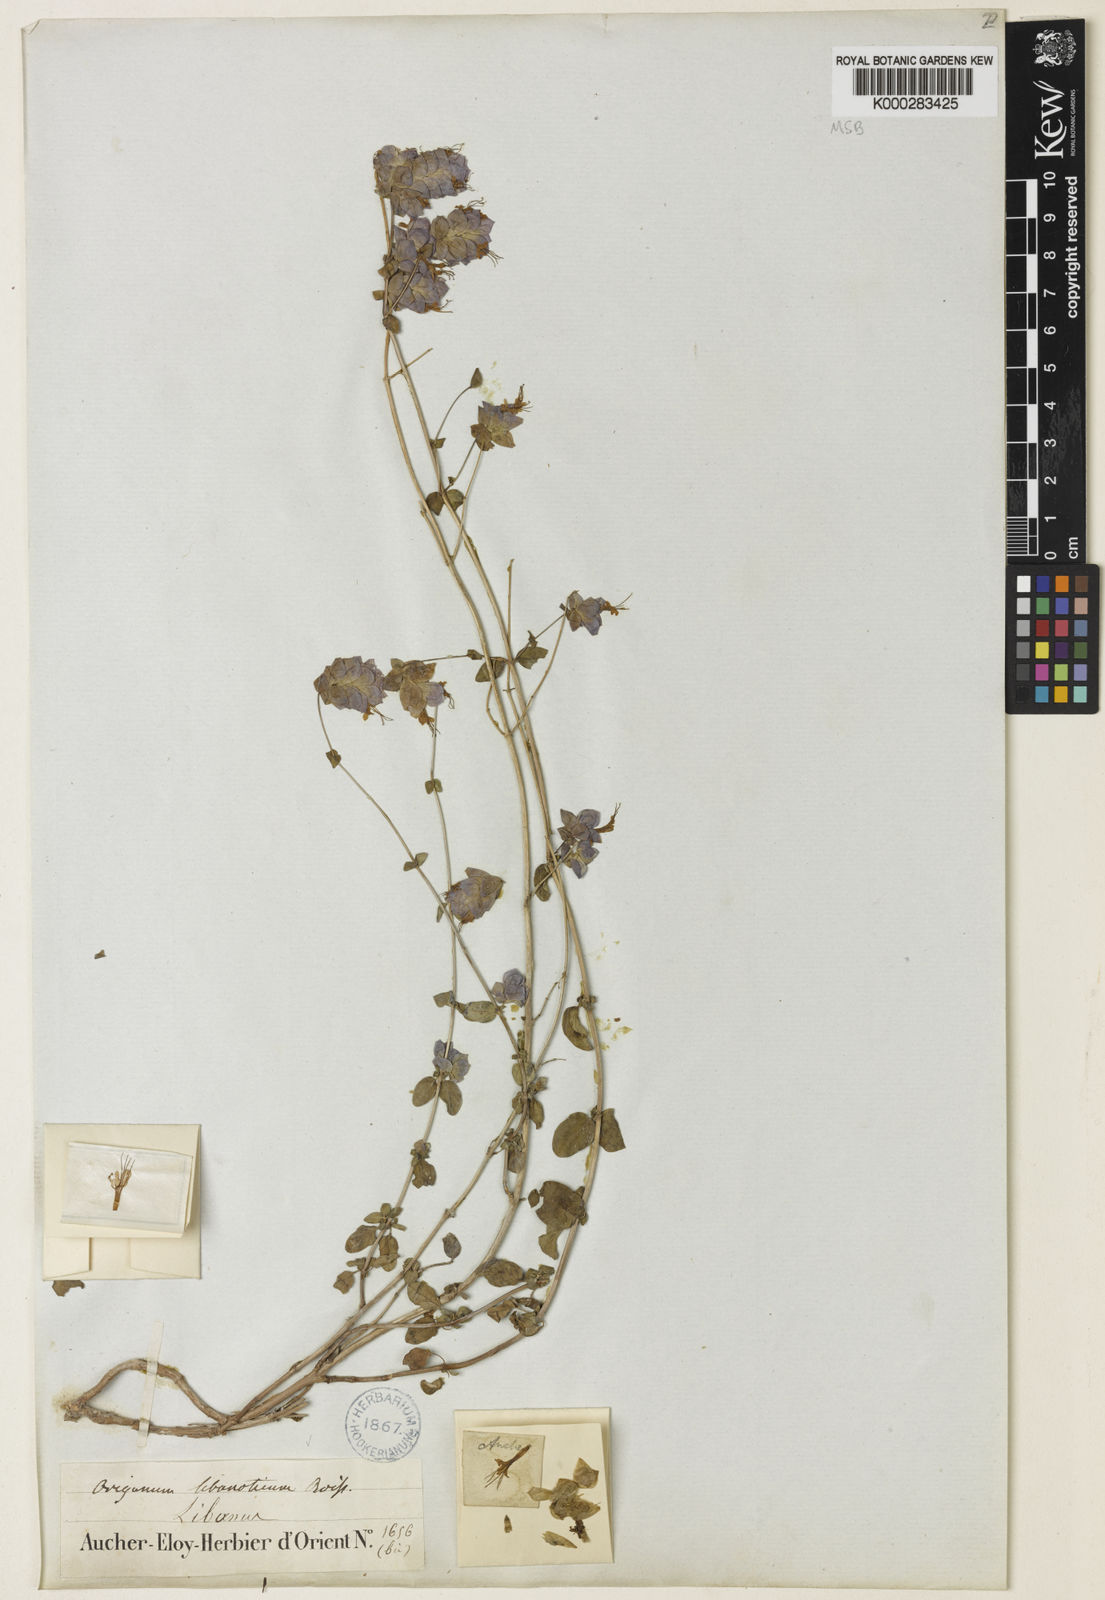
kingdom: Plantae
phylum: Tracheophyta
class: Magnoliopsida
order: Lamiales
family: Lamiaceae
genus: Origanum
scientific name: Origanum libanoticum
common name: Lebanon oregano
